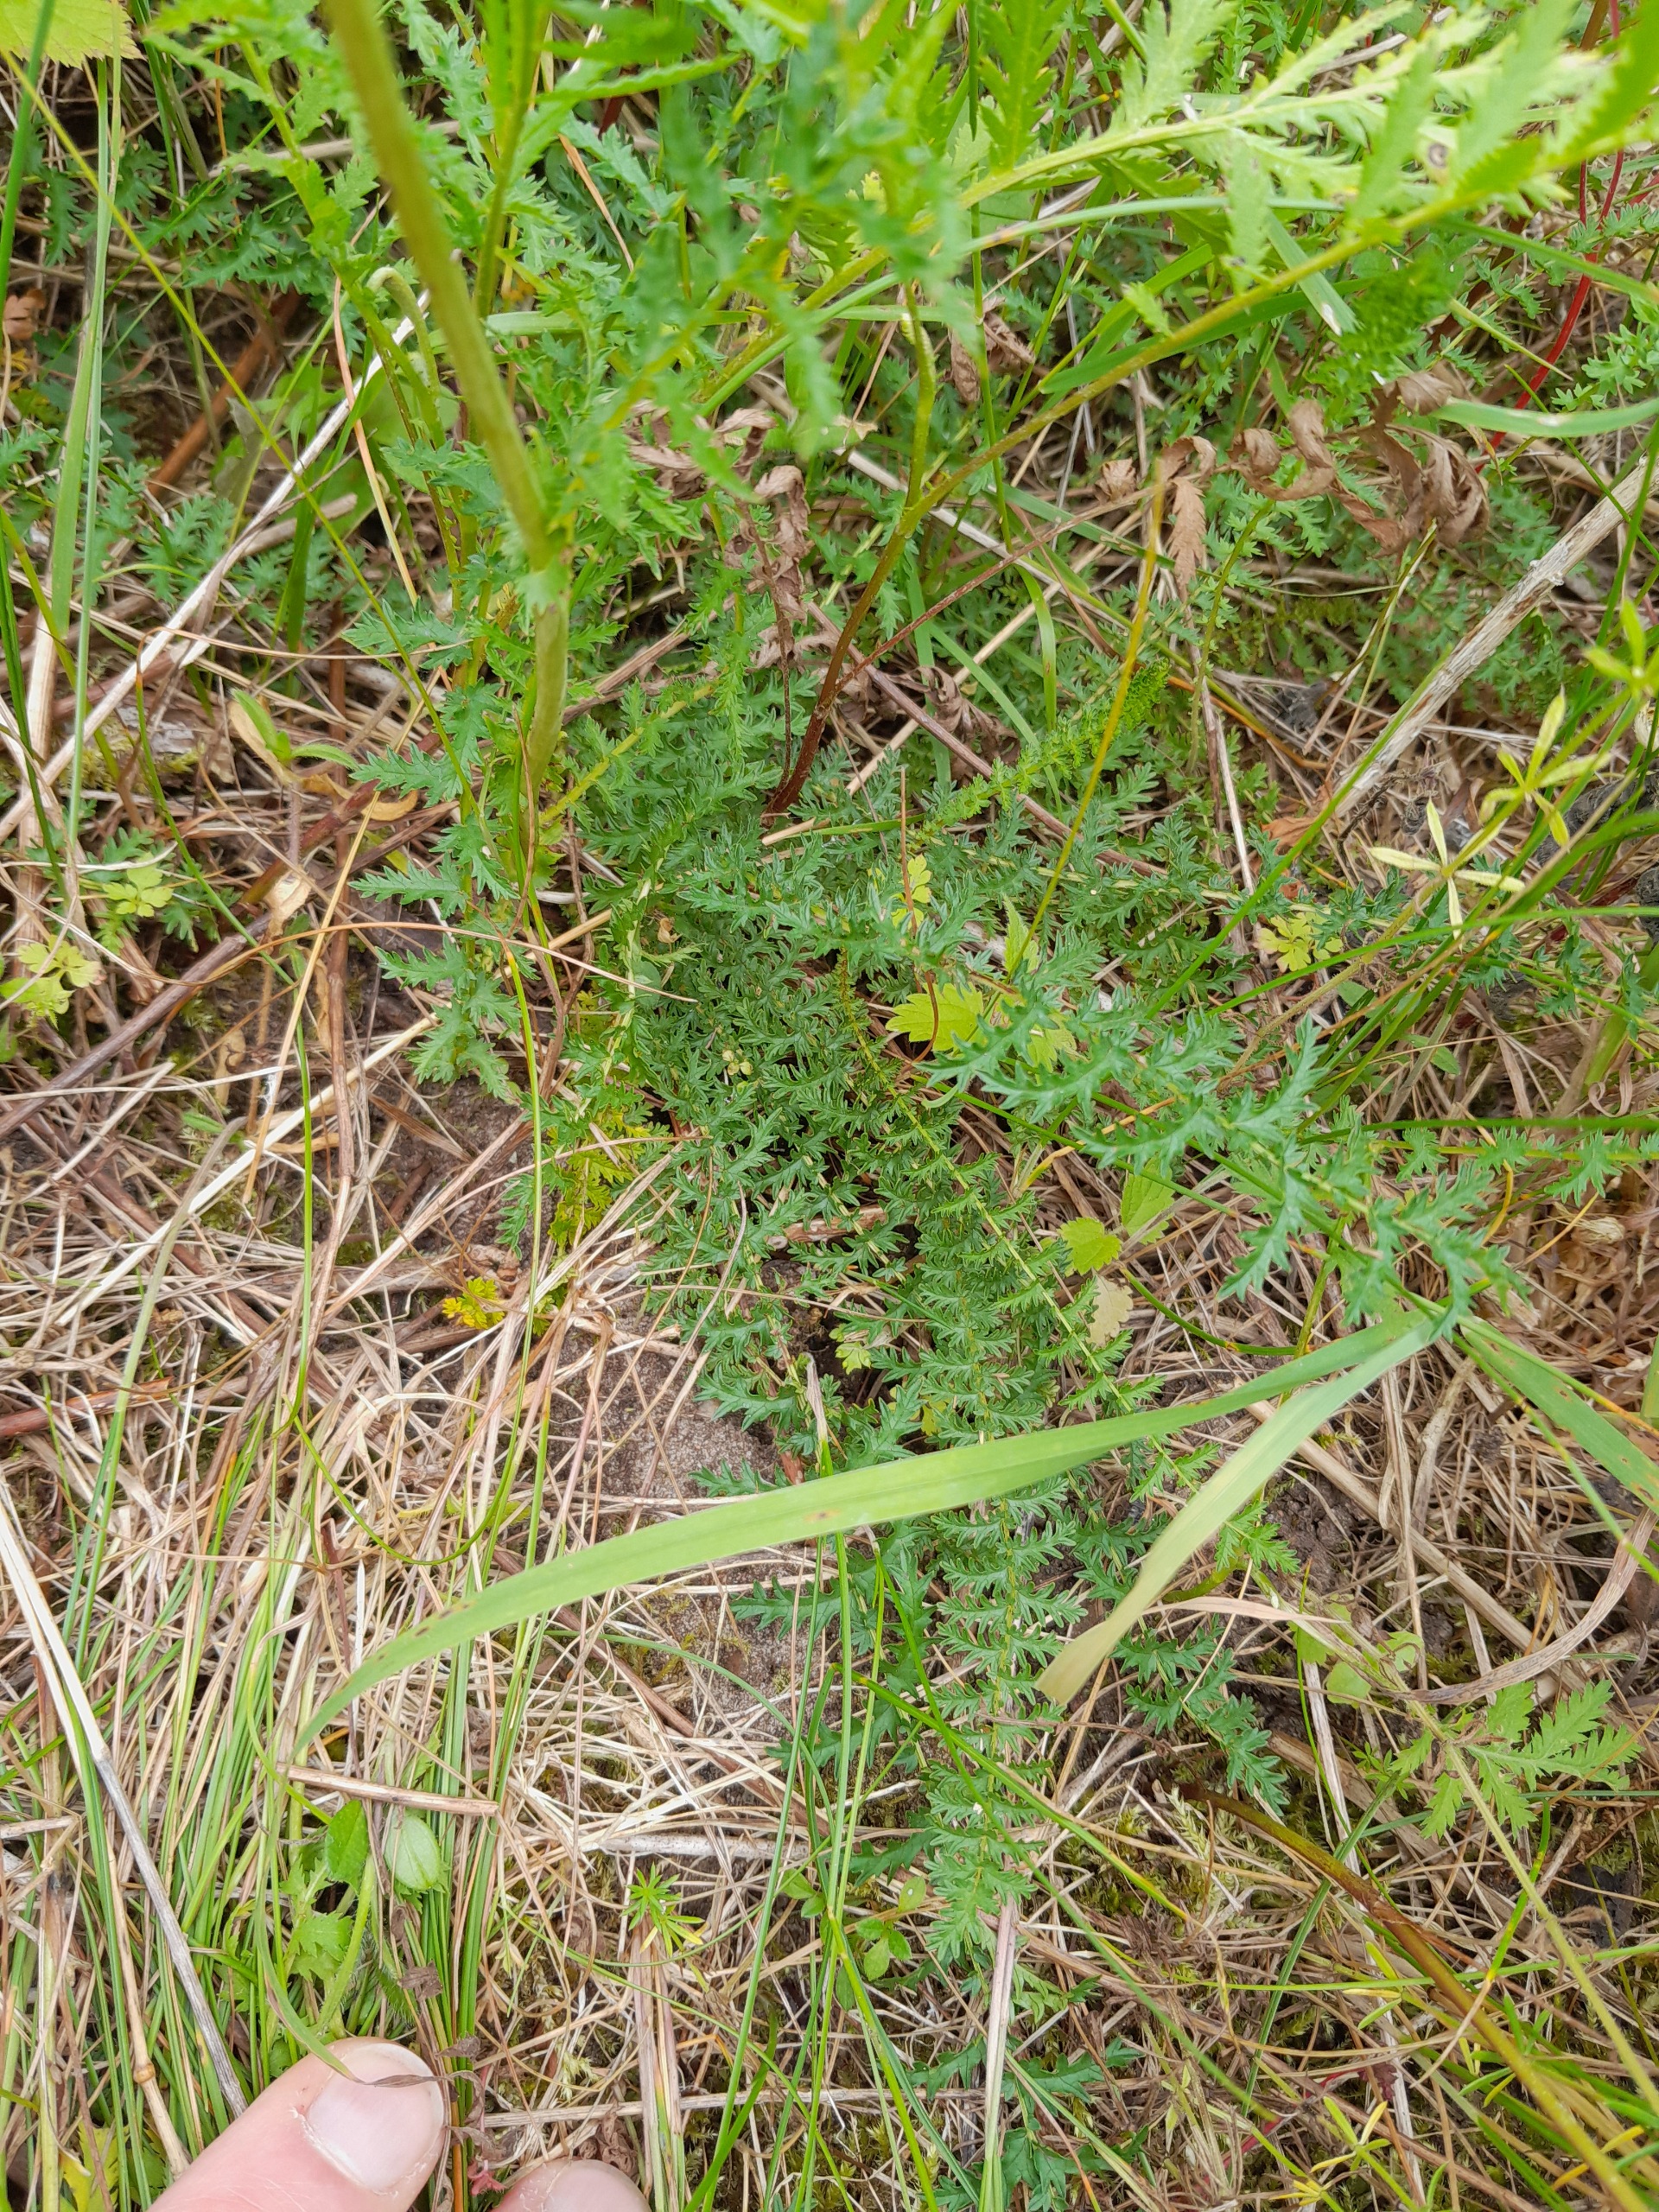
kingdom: Plantae
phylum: Tracheophyta
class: Magnoliopsida
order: Rosales
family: Rosaceae
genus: Filipendula
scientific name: Filipendula vulgaris
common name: Knoldet mjødurt
